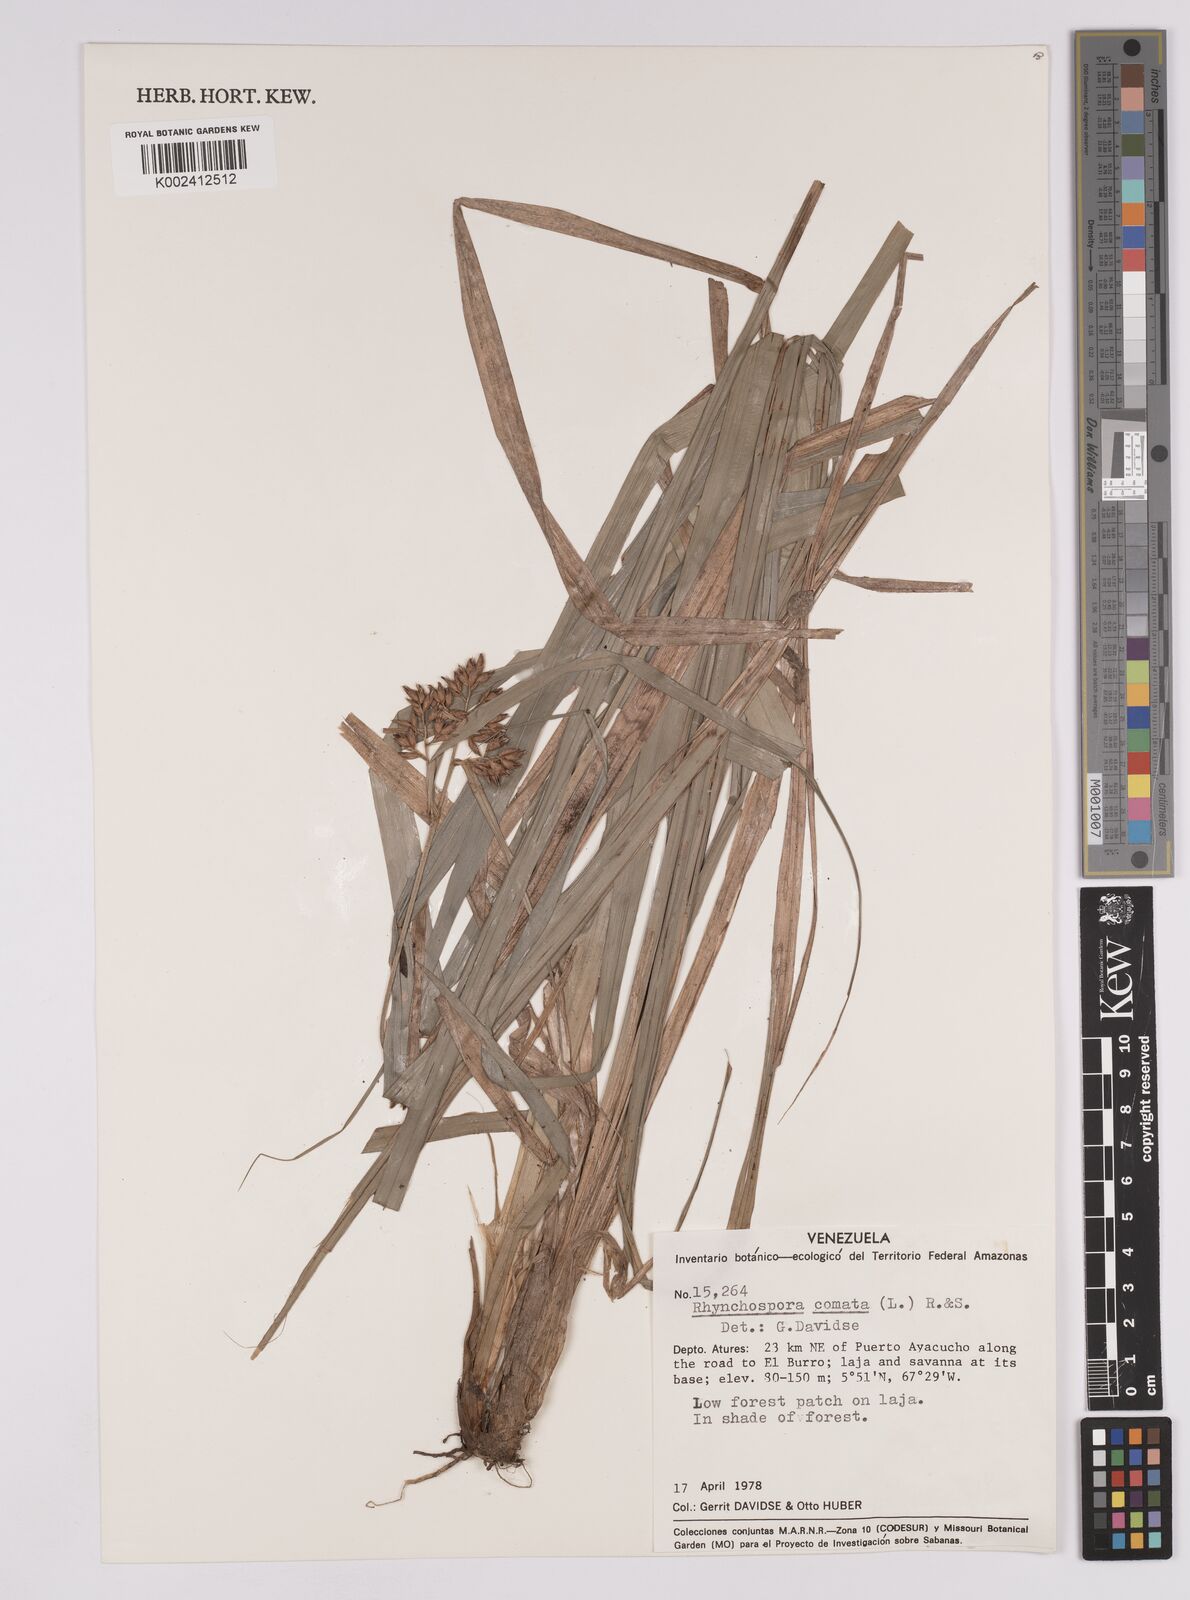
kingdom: Plantae
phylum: Tracheophyta
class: Liliopsida
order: Poales
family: Cyperaceae
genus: Rhynchospora
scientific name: Rhynchospora comata
